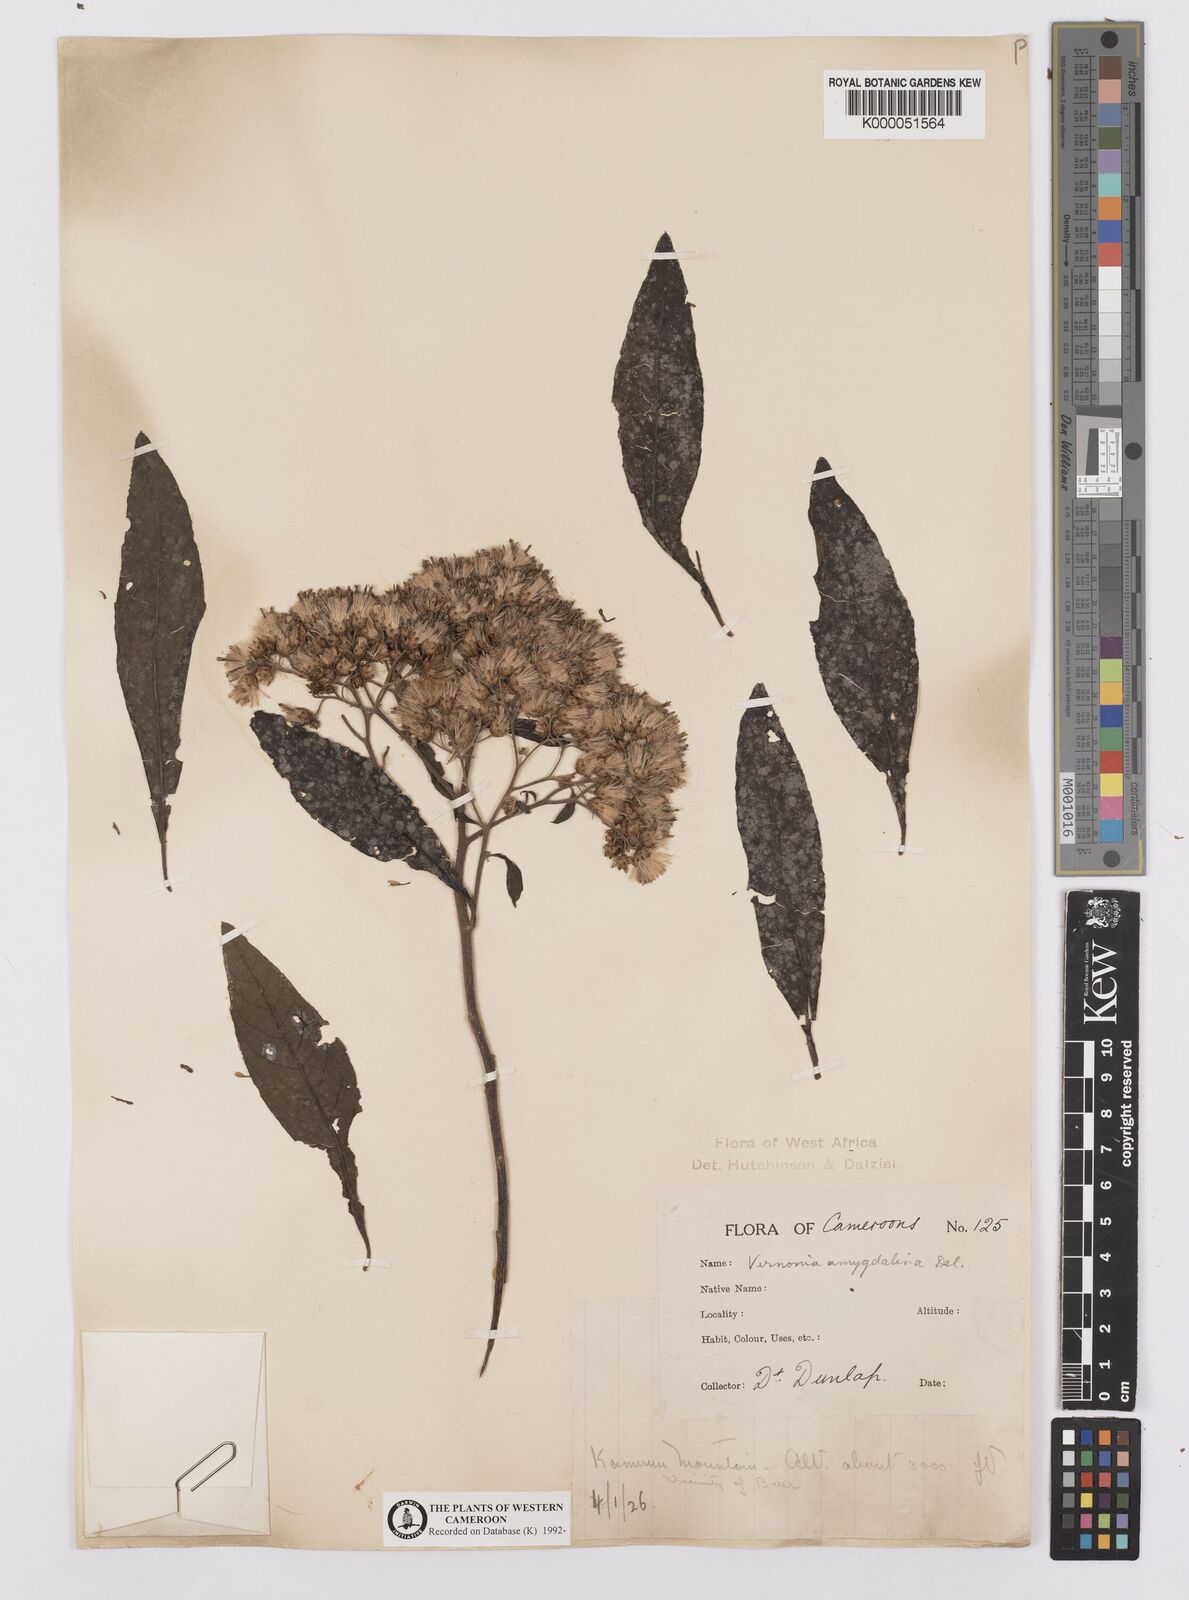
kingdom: Plantae
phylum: Tracheophyta
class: Magnoliopsida
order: Asterales
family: Asteraceae
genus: Gymnanthemum
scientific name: Gymnanthemum amygdalinum
